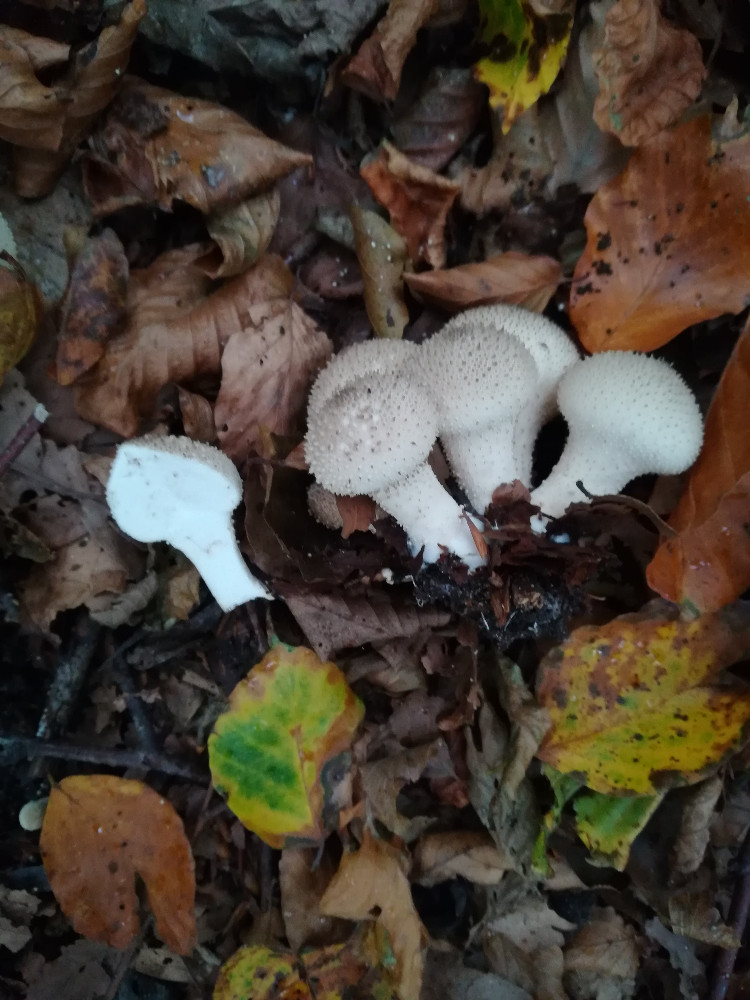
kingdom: Fungi
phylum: Basidiomycota
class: Agaricomycetes
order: Agaricales
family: Lycoperdaceae
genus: Lycoperdon
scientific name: Lycoperdon perlatum
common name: krystal-støvbold
